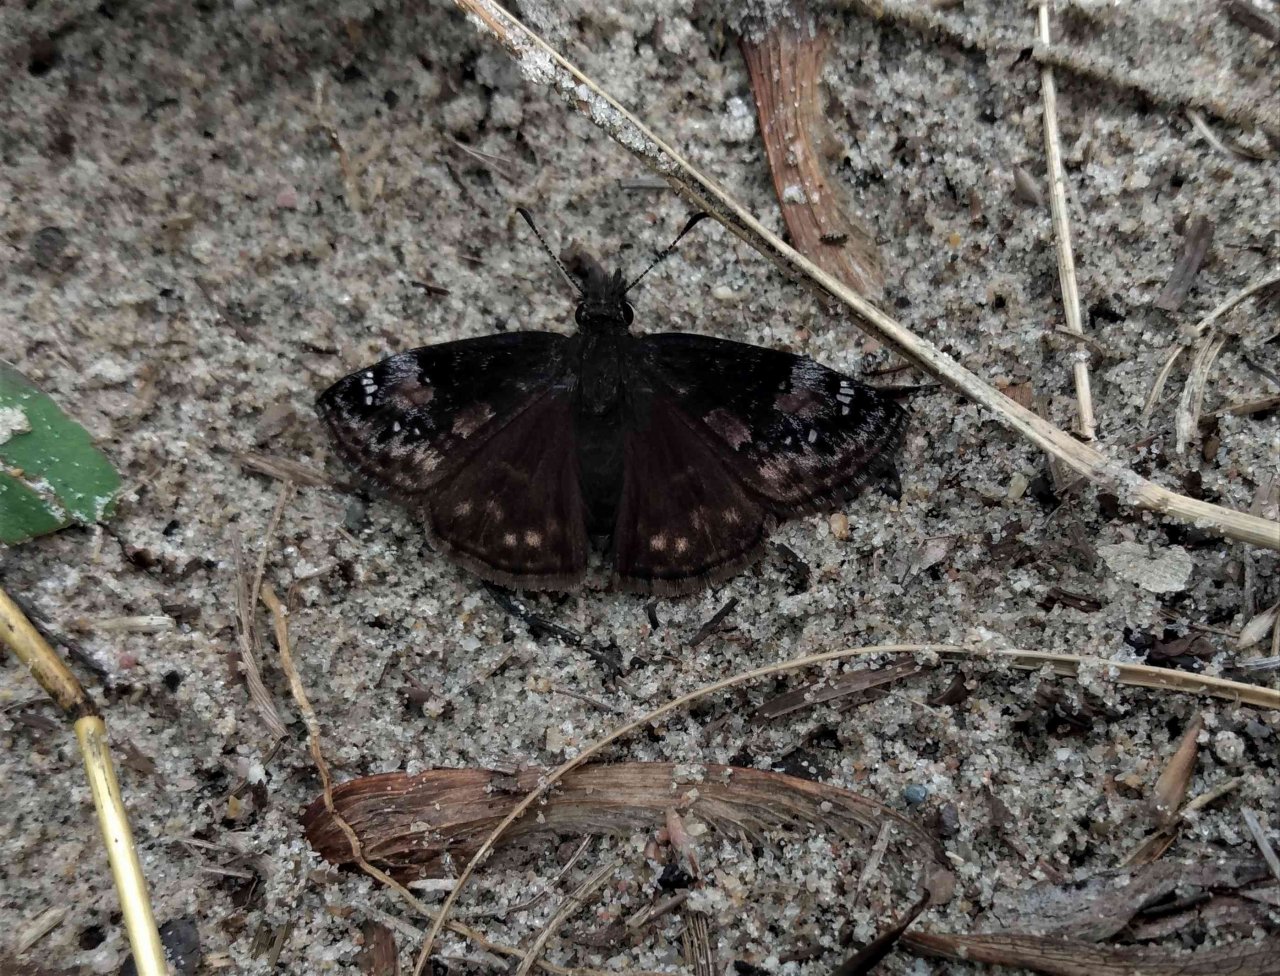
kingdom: Animalia
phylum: Arthropoda
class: Insecta
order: Lepidoptera
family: Hesperiidae
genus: Gesta
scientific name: Gesta
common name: Columbine Duskywing
